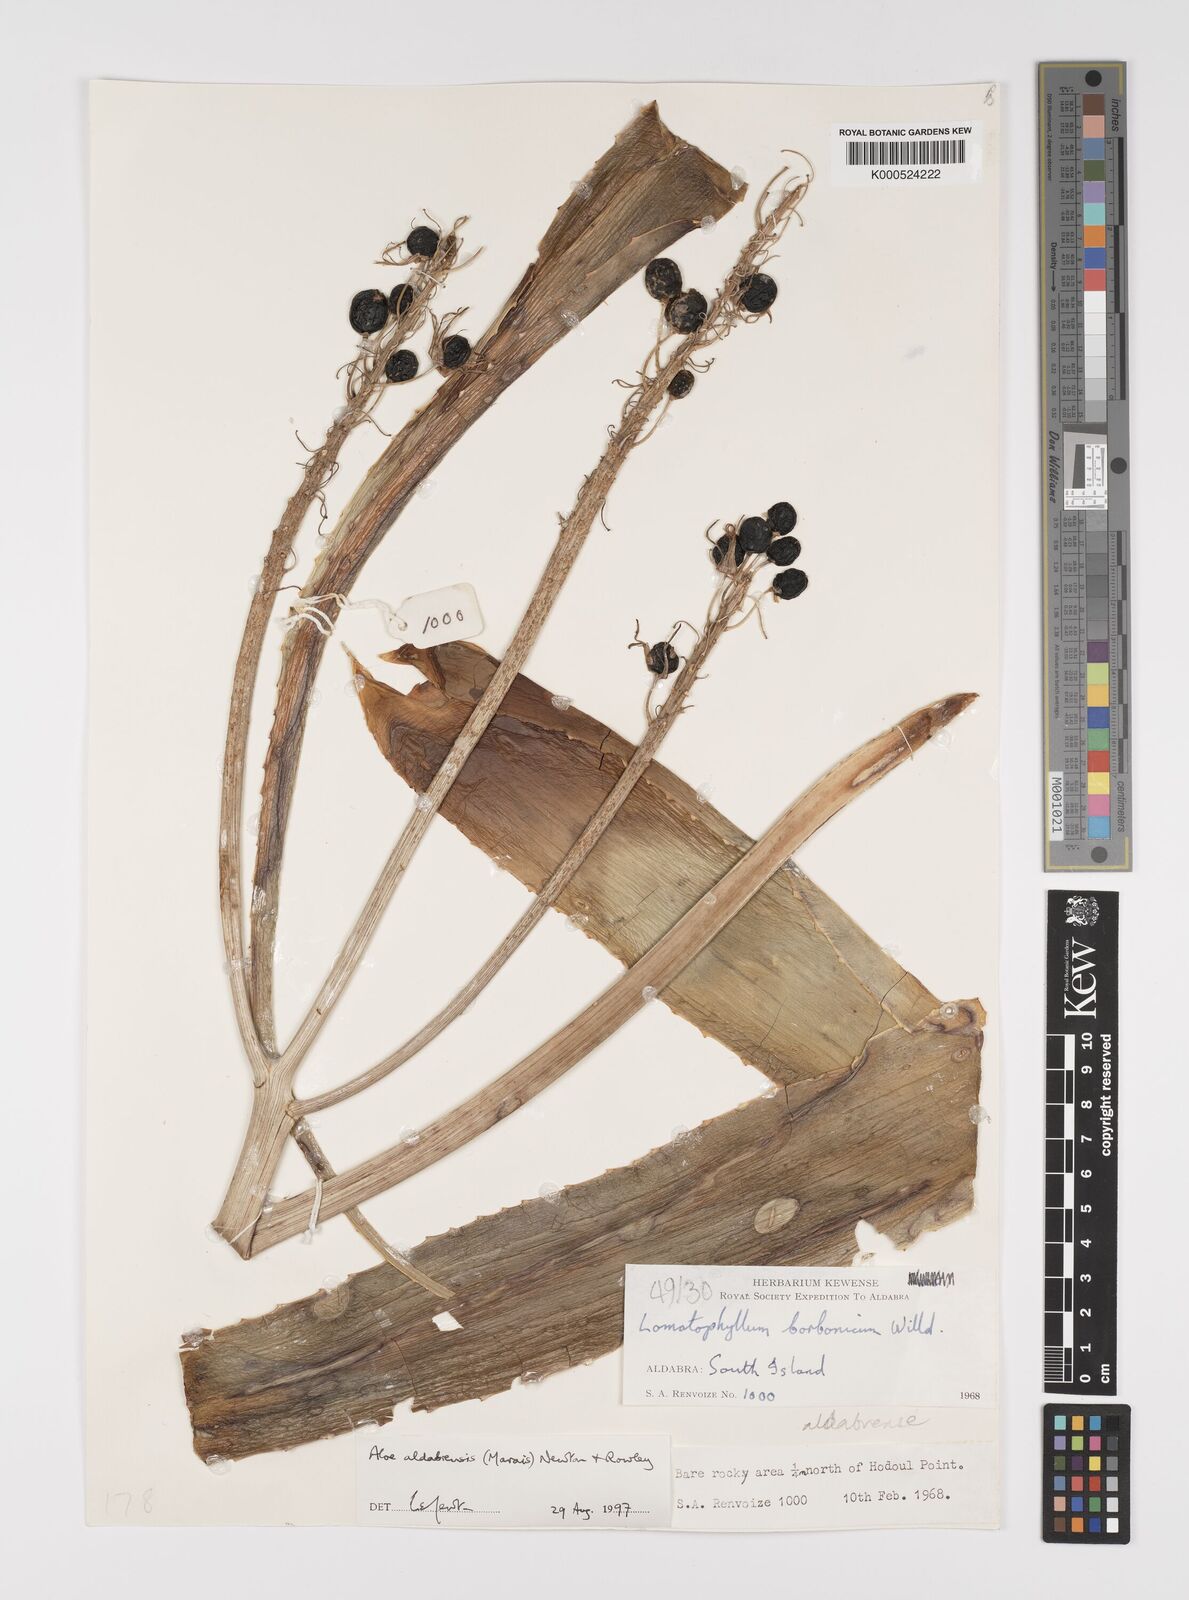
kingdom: Plantae
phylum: Tracheophyta
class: Liliopsida
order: Asparagales
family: Asphodelaceae
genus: Aloe
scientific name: Aloe aldabrensis
